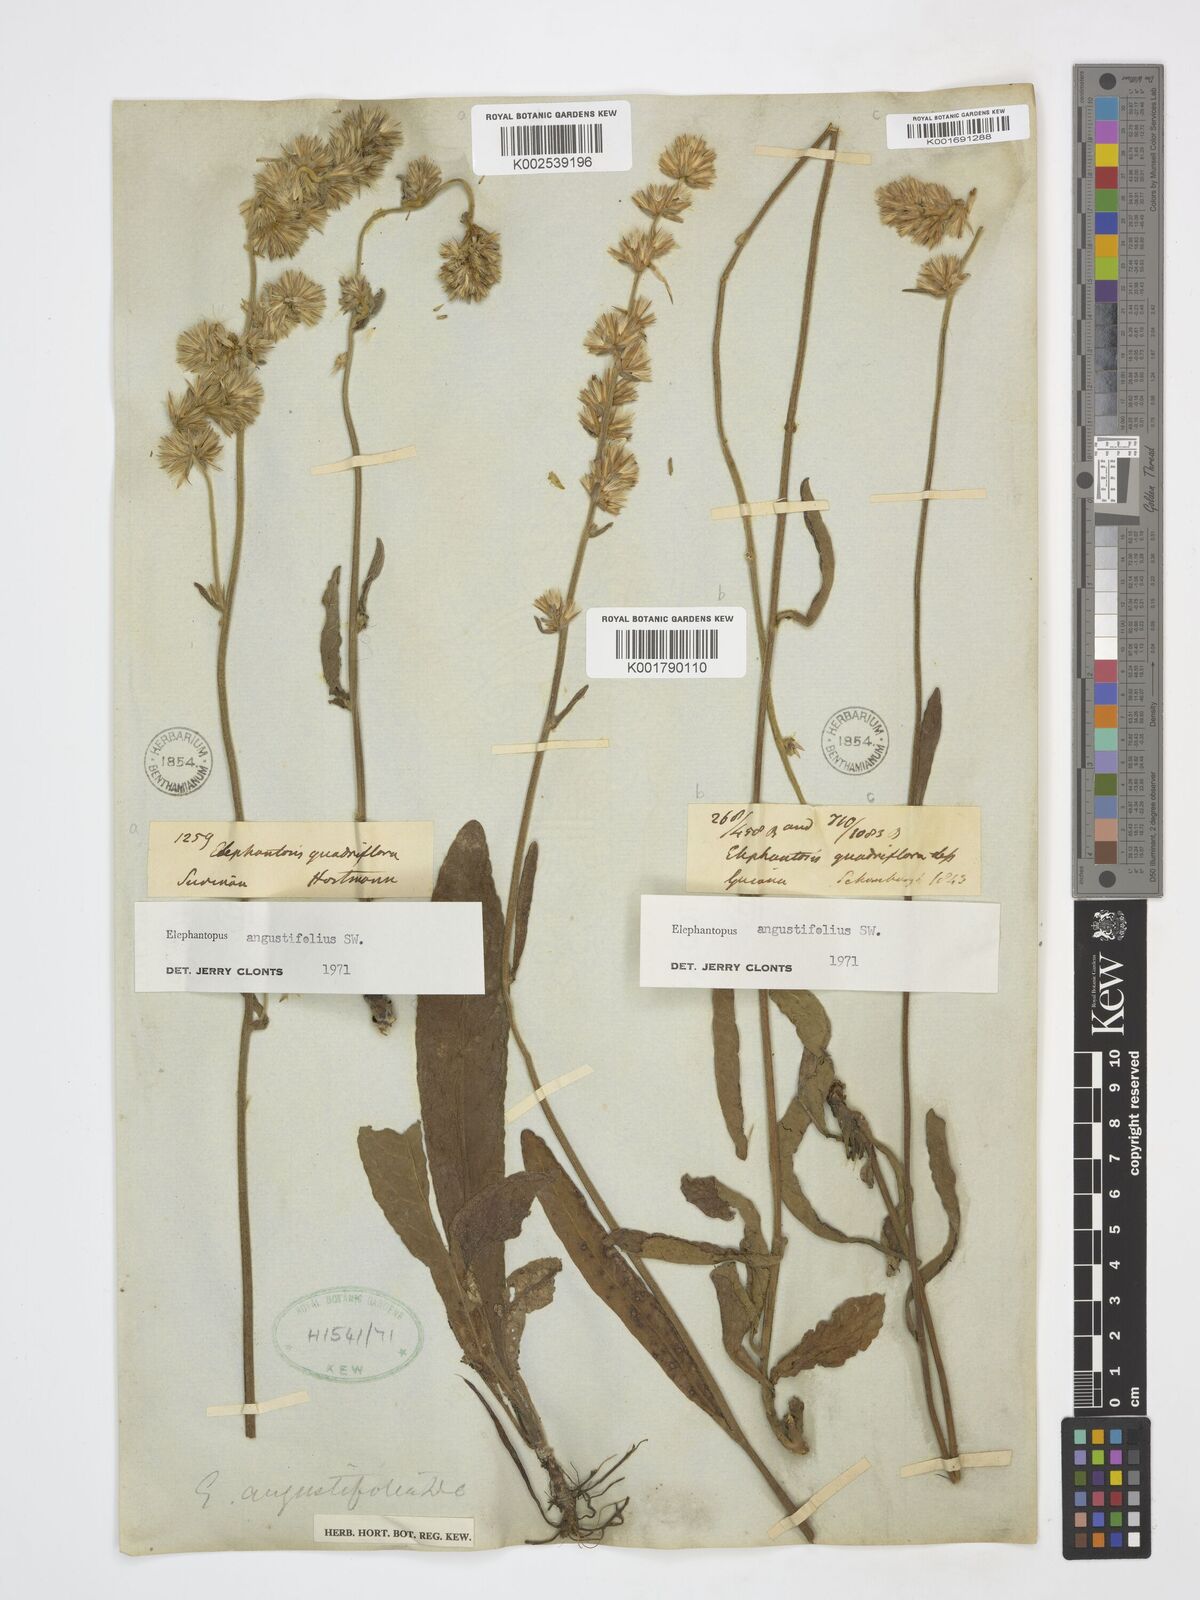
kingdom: Plantae
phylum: Tracheophyta
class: Magnoliopsida
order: Asterales
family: Asteraceae
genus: Orthopappus
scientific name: Orthopappus angustifolius
